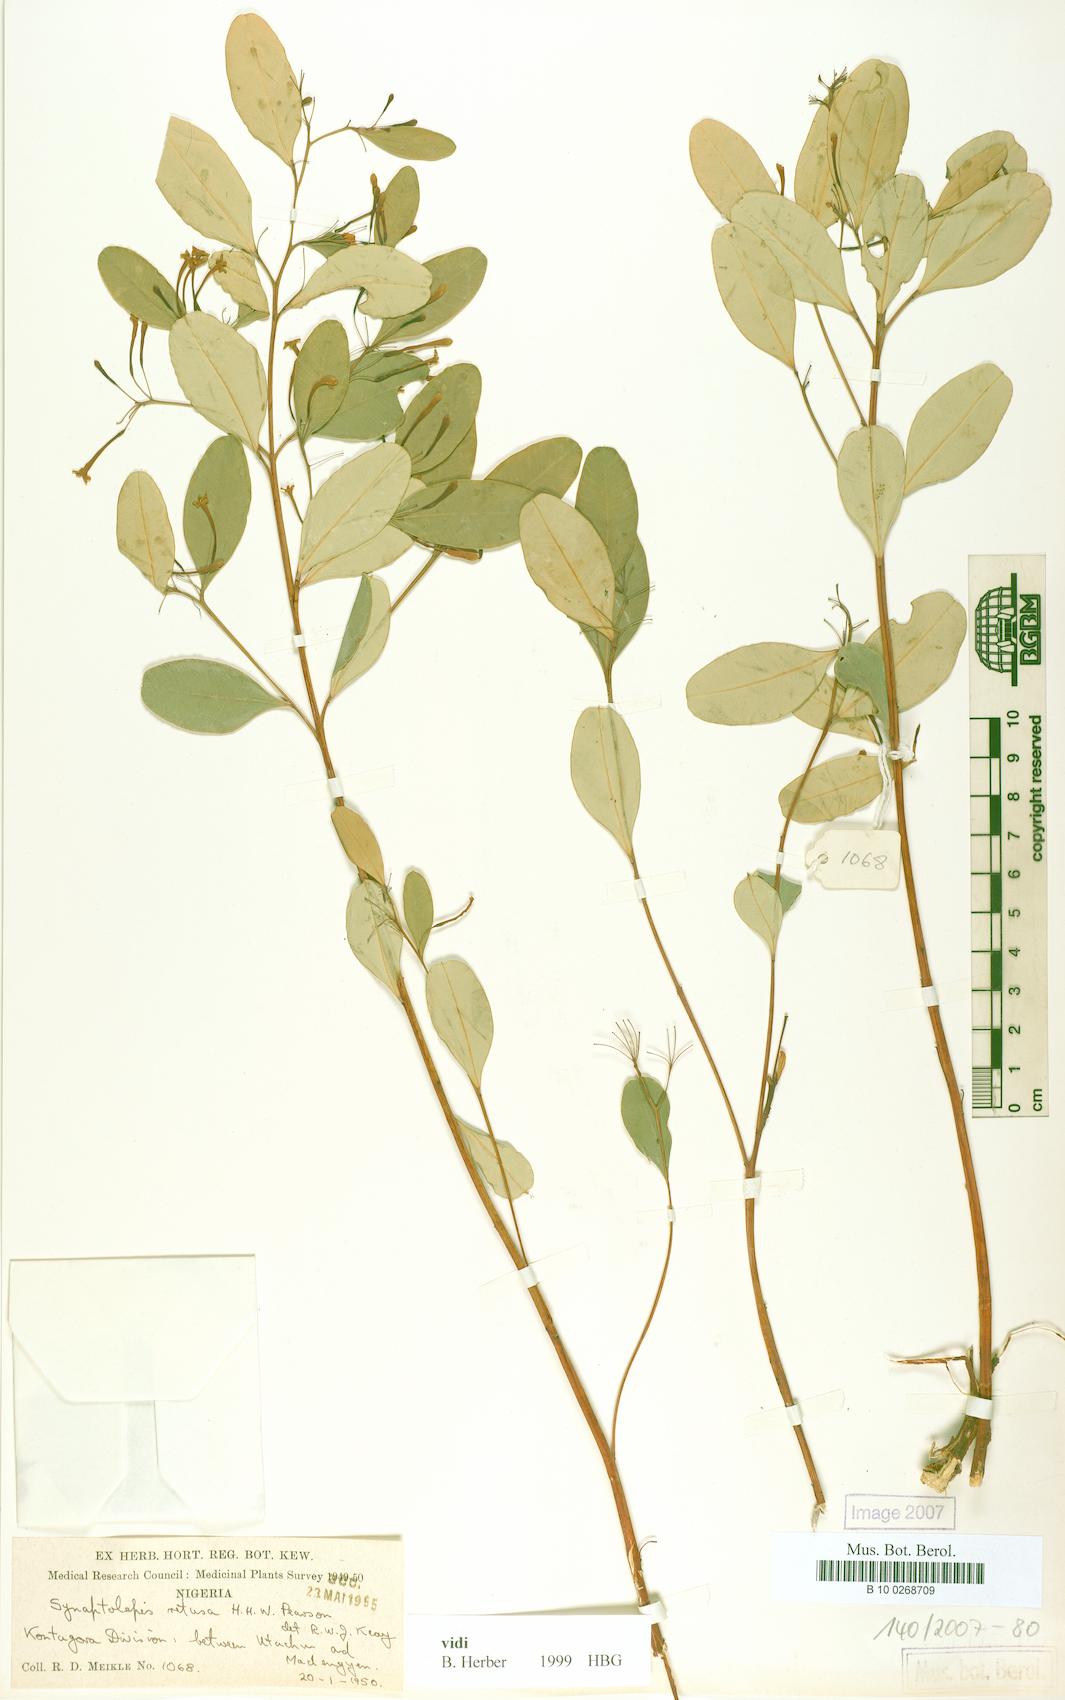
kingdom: Plantae
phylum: Tracheophyta
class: Magnoliopsida
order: Malvales
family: Thymelaeaceae
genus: Synaptolepis
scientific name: Synaptolepis retusa
